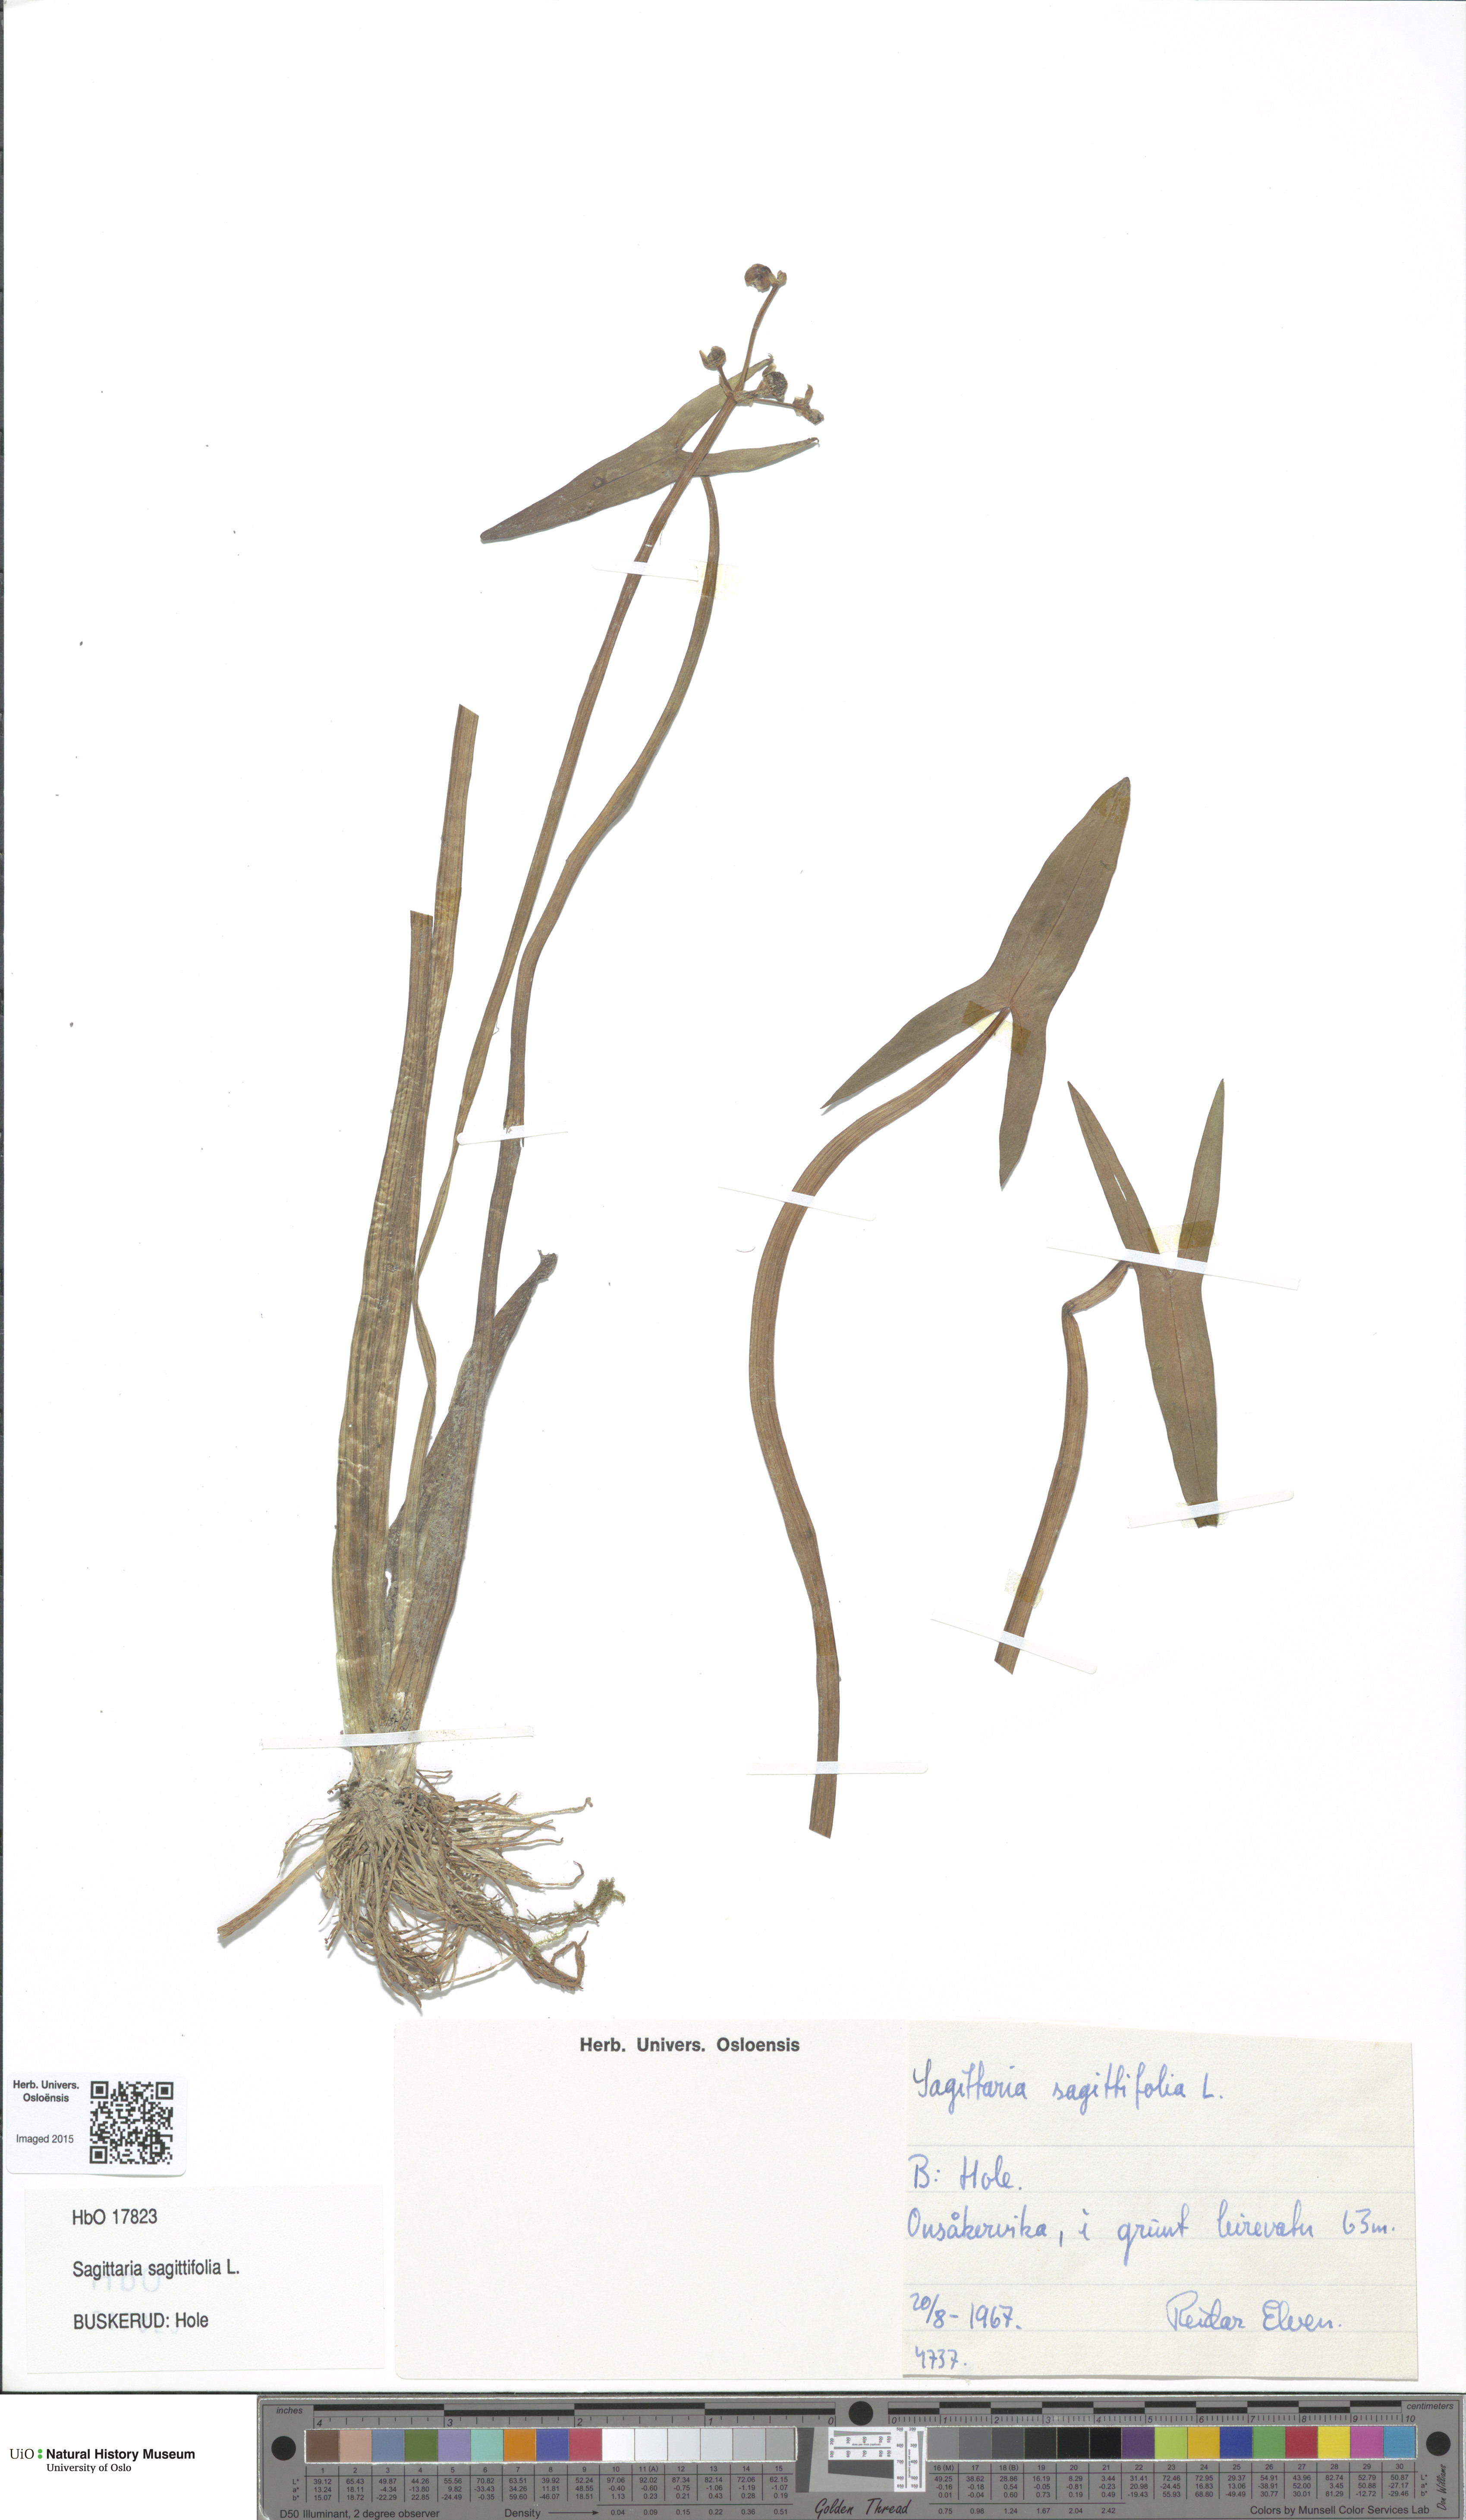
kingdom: Plantae
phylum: Tracheophyta
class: Liliopsida
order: Alismatales
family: Alismataceae
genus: Sagittaria
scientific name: Sagittaria sagittifolia
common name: Arrowhead
